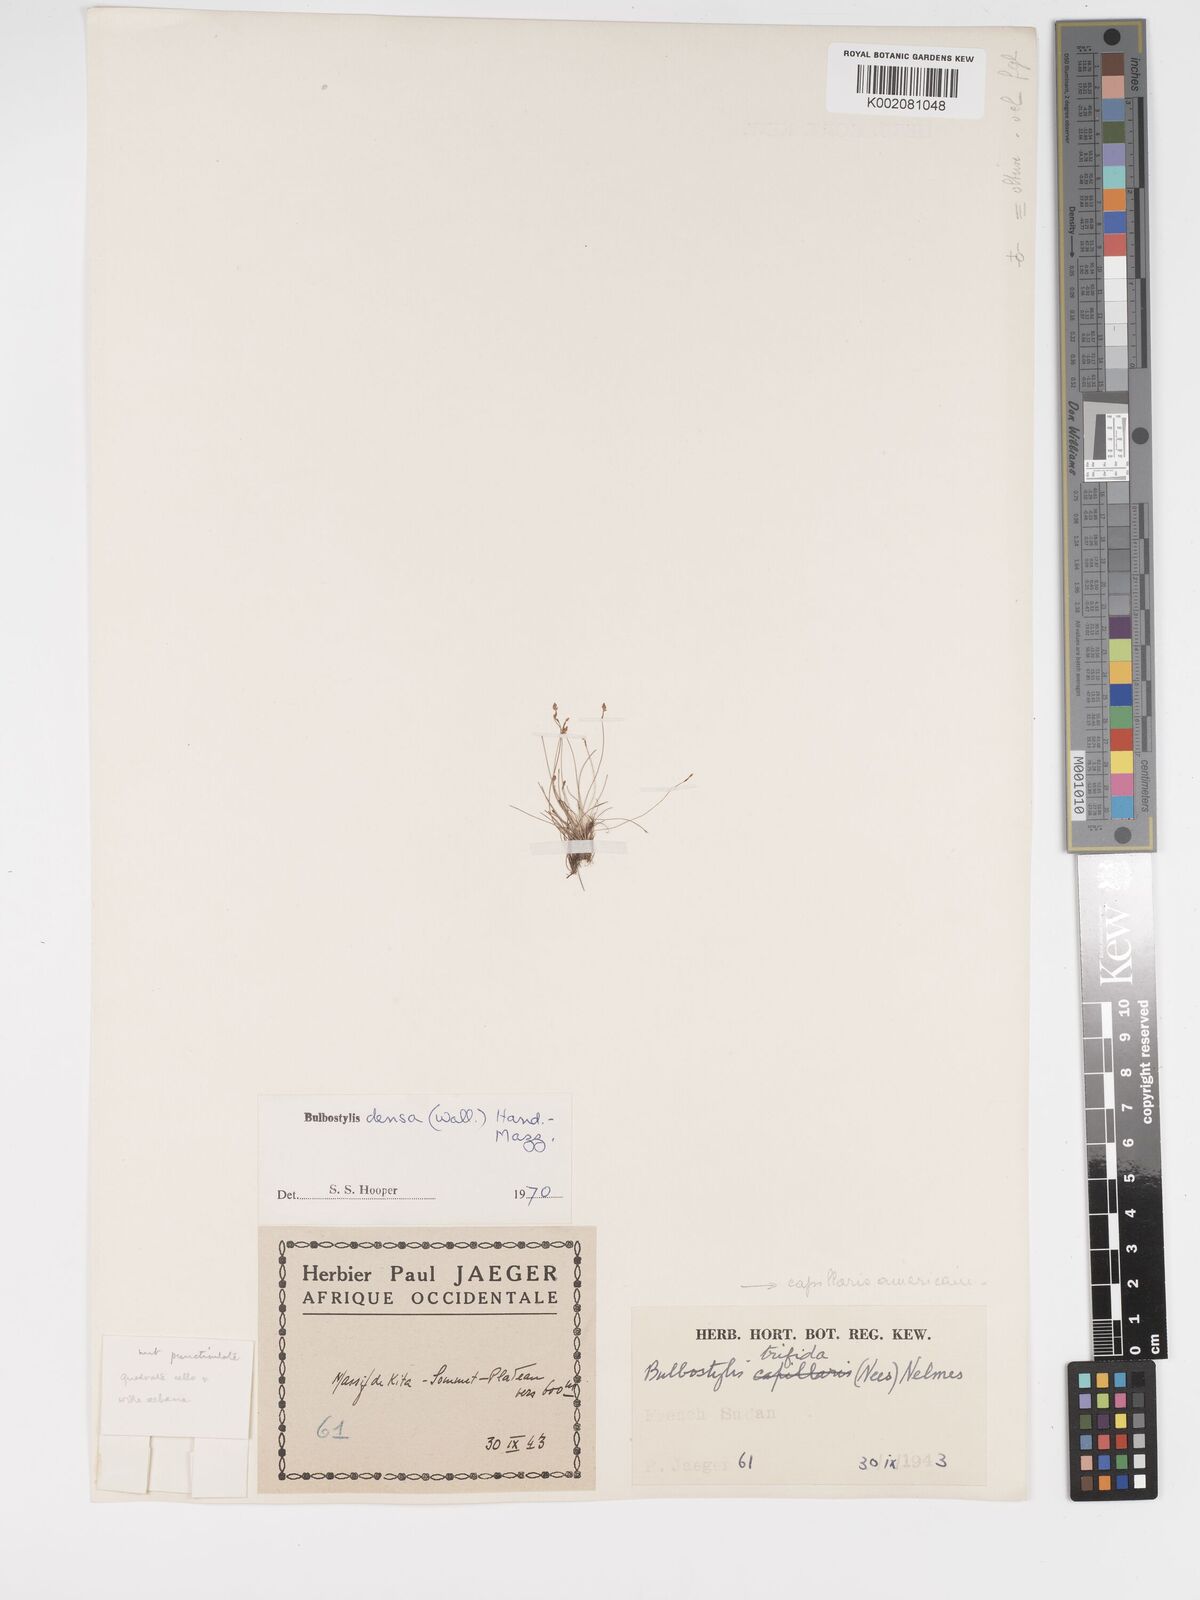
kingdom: Plantae
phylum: Tracheophyta
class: Liliopsida
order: Poales
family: Cyperaceae
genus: Bulbostylis
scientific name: Bulbostylis densa
